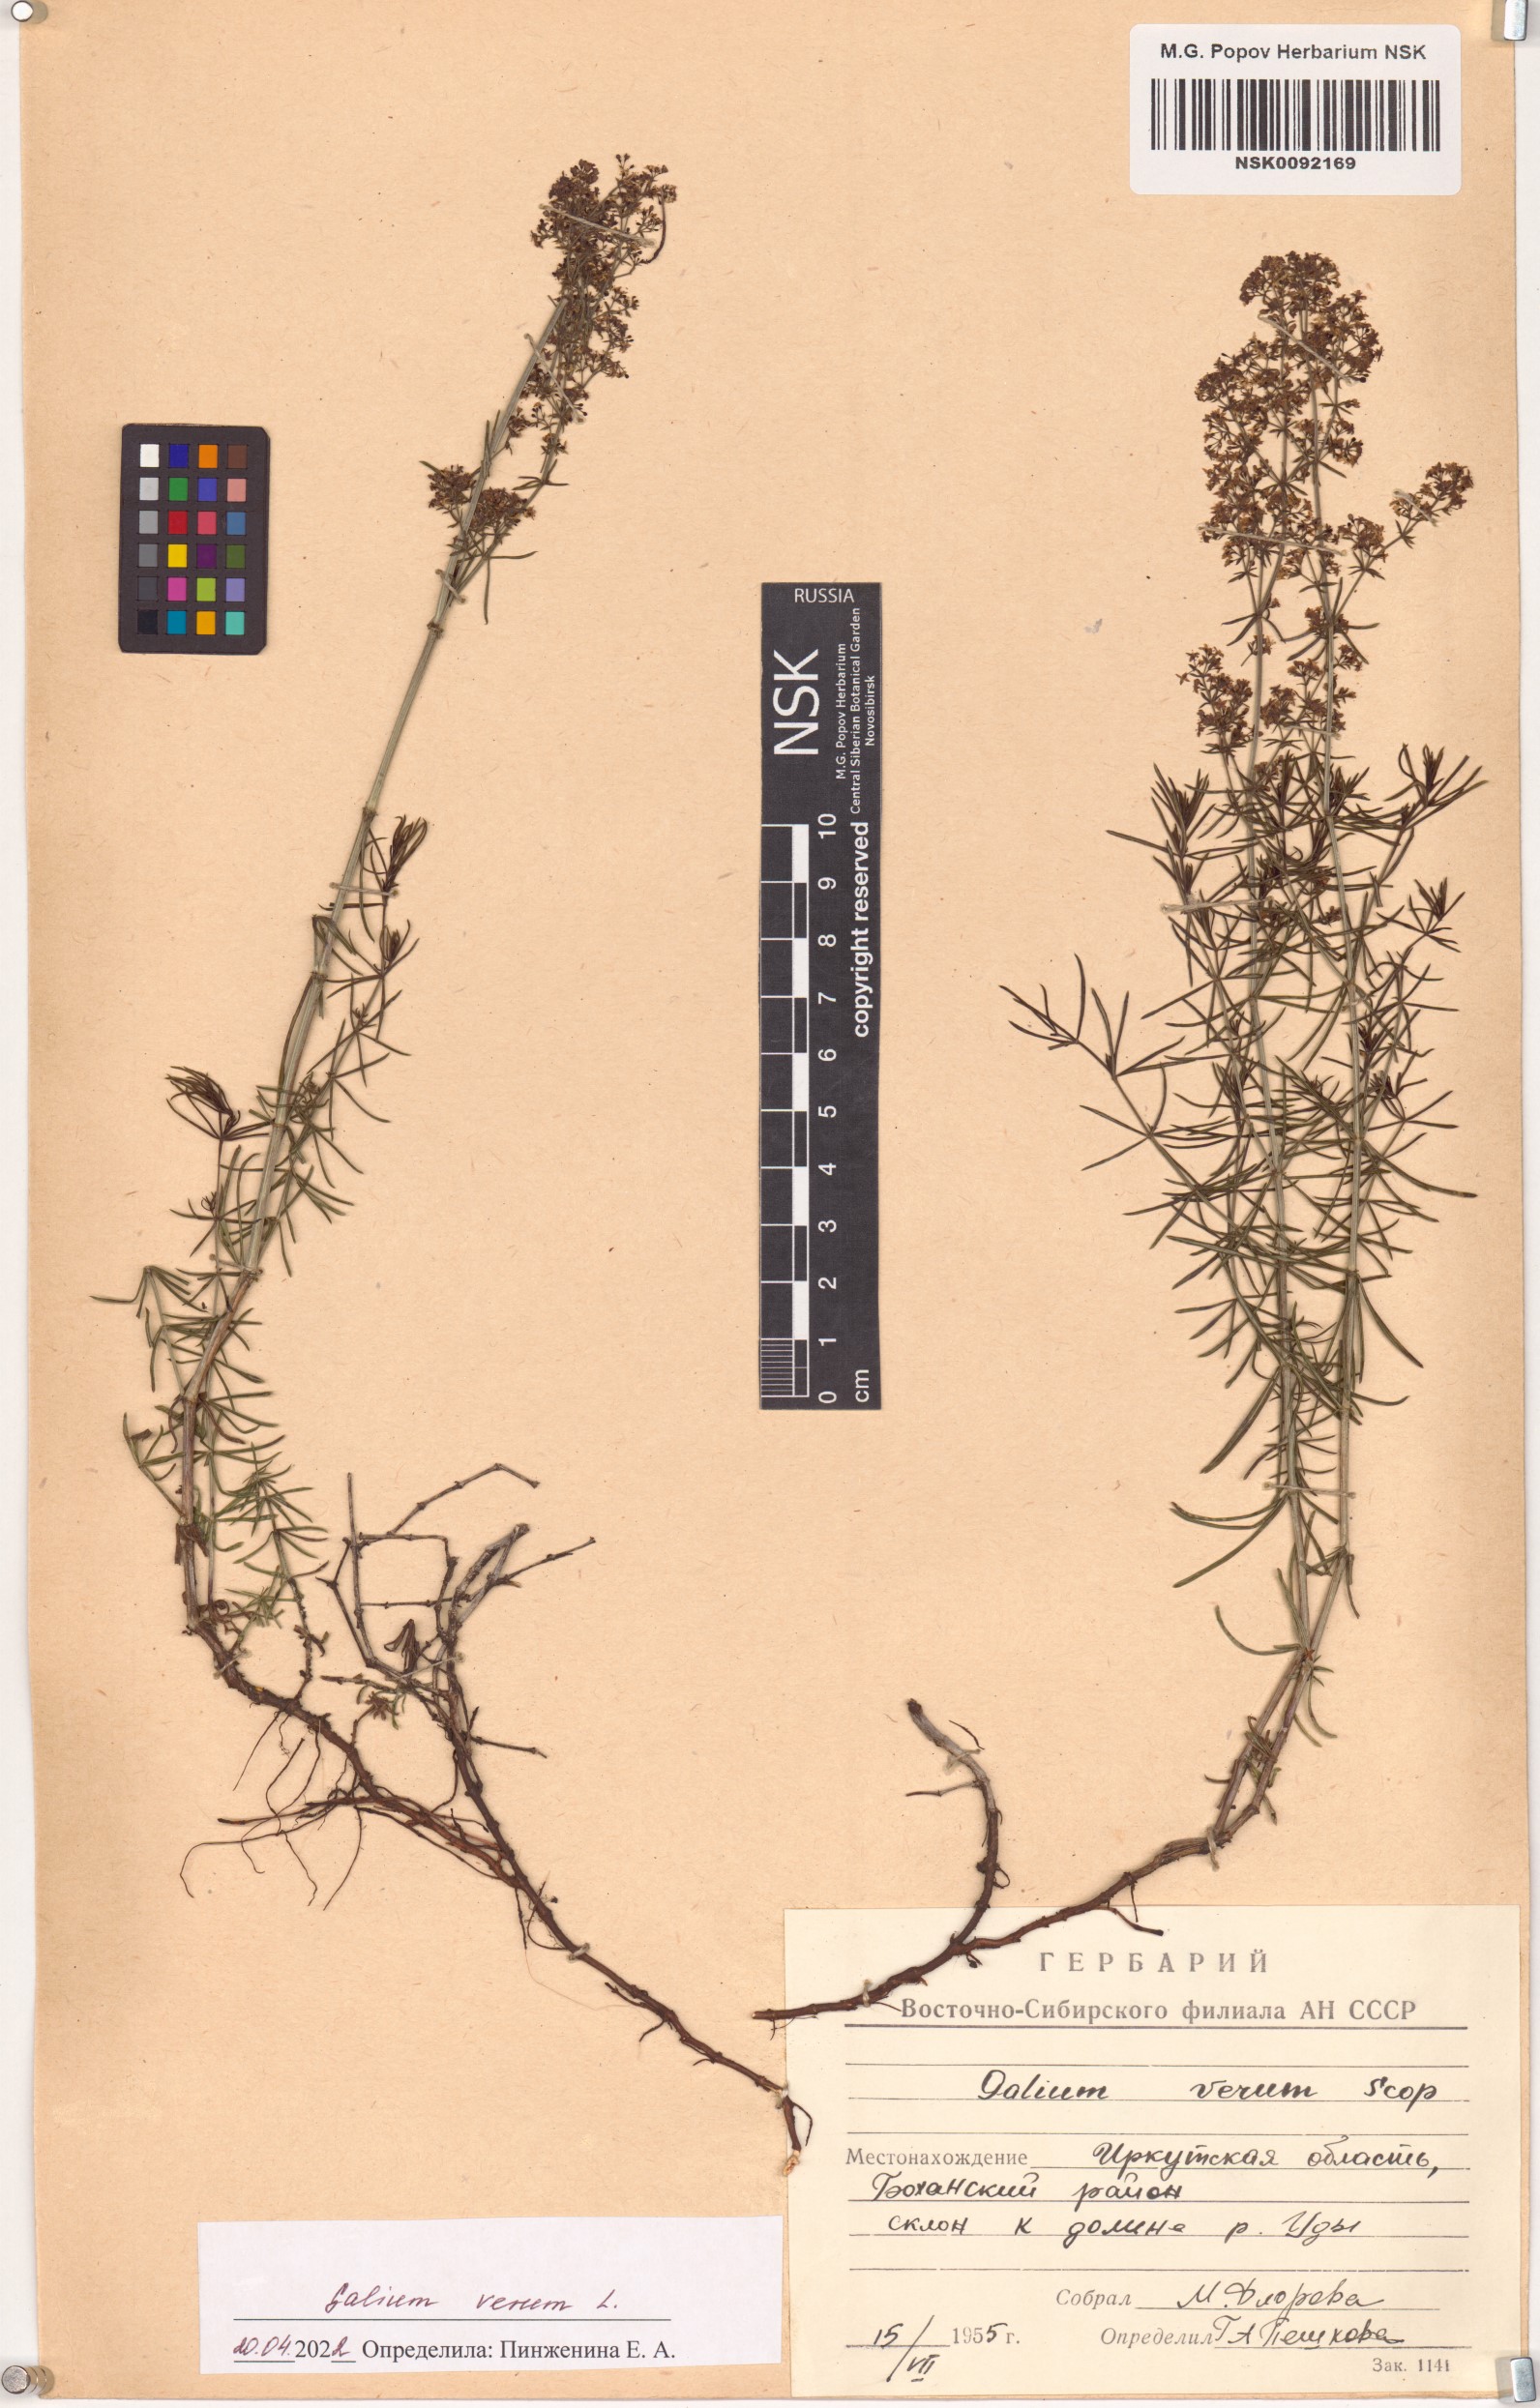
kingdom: Plantae
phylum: Tracheophyta
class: Magnoliopsida
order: Gentianales
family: Rubiaceae
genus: Galium
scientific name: Galium verum
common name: Lady's bedstraw
